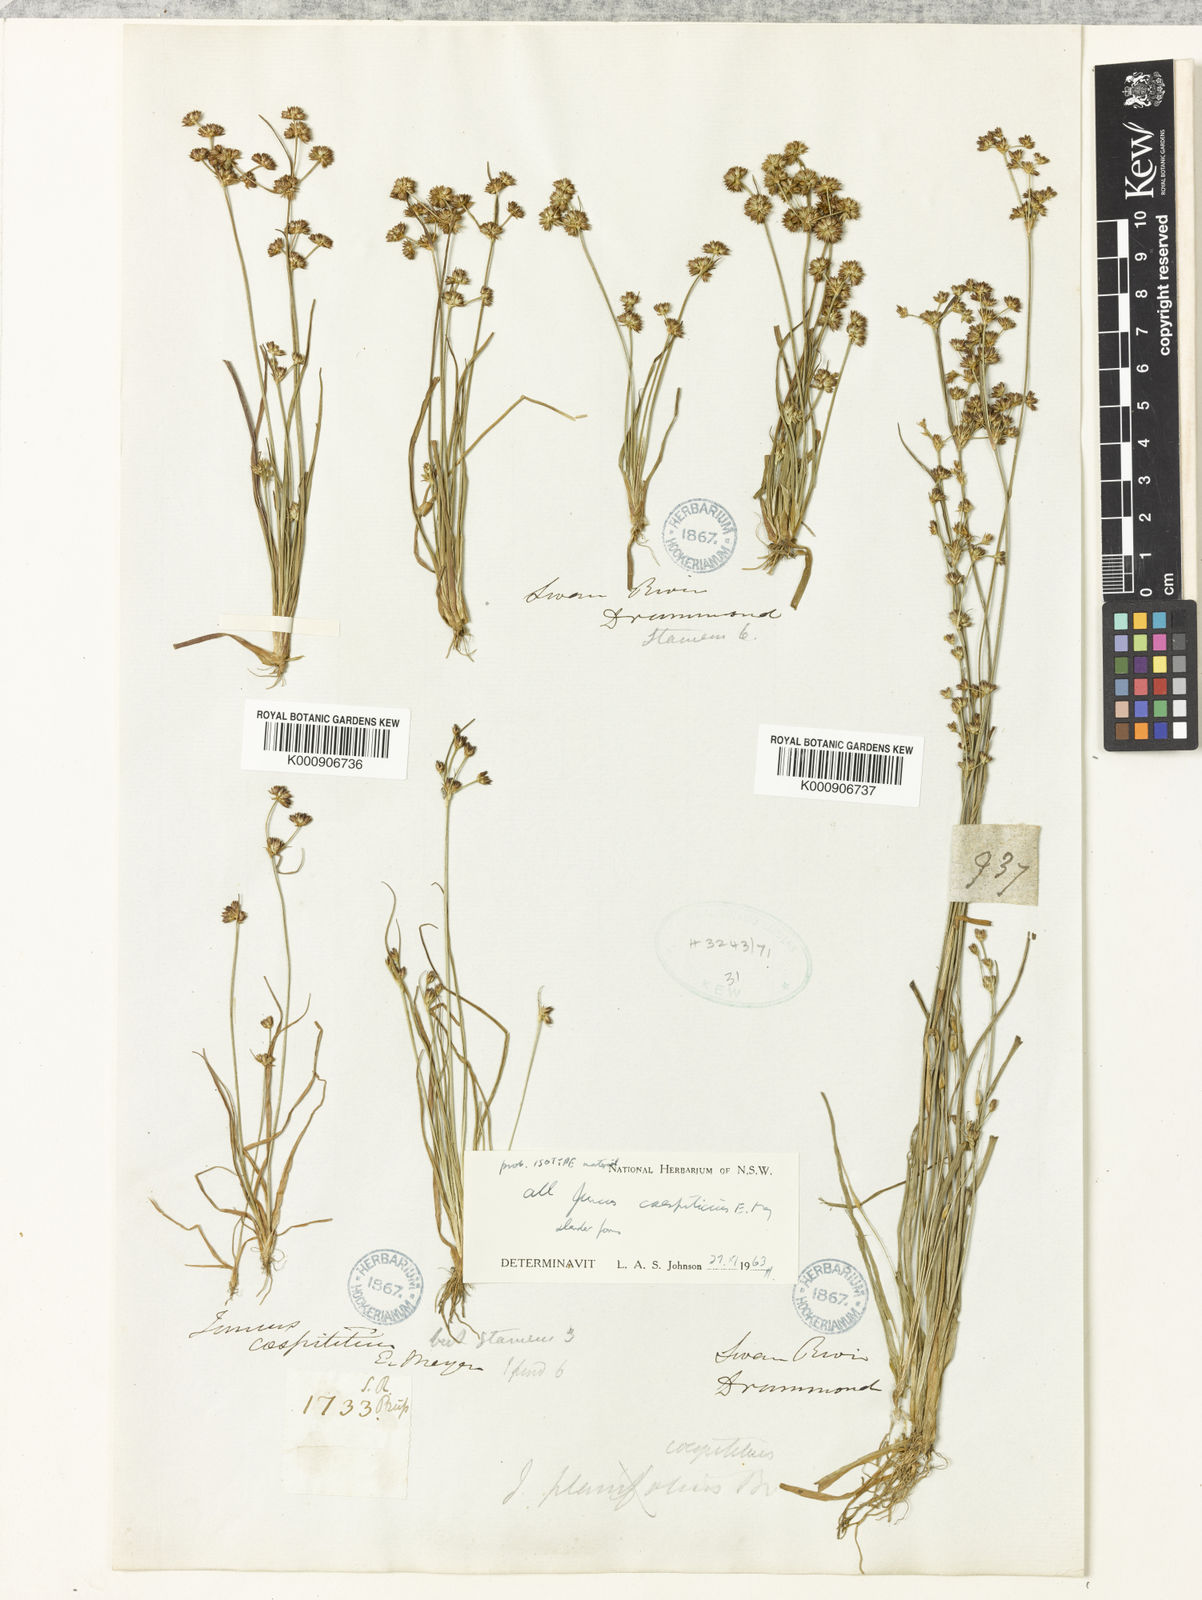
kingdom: Plantae
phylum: Tracheophyta
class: Liliopsida
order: Poales
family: Juncaceae
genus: Juncus
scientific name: Juncus caespiticius
